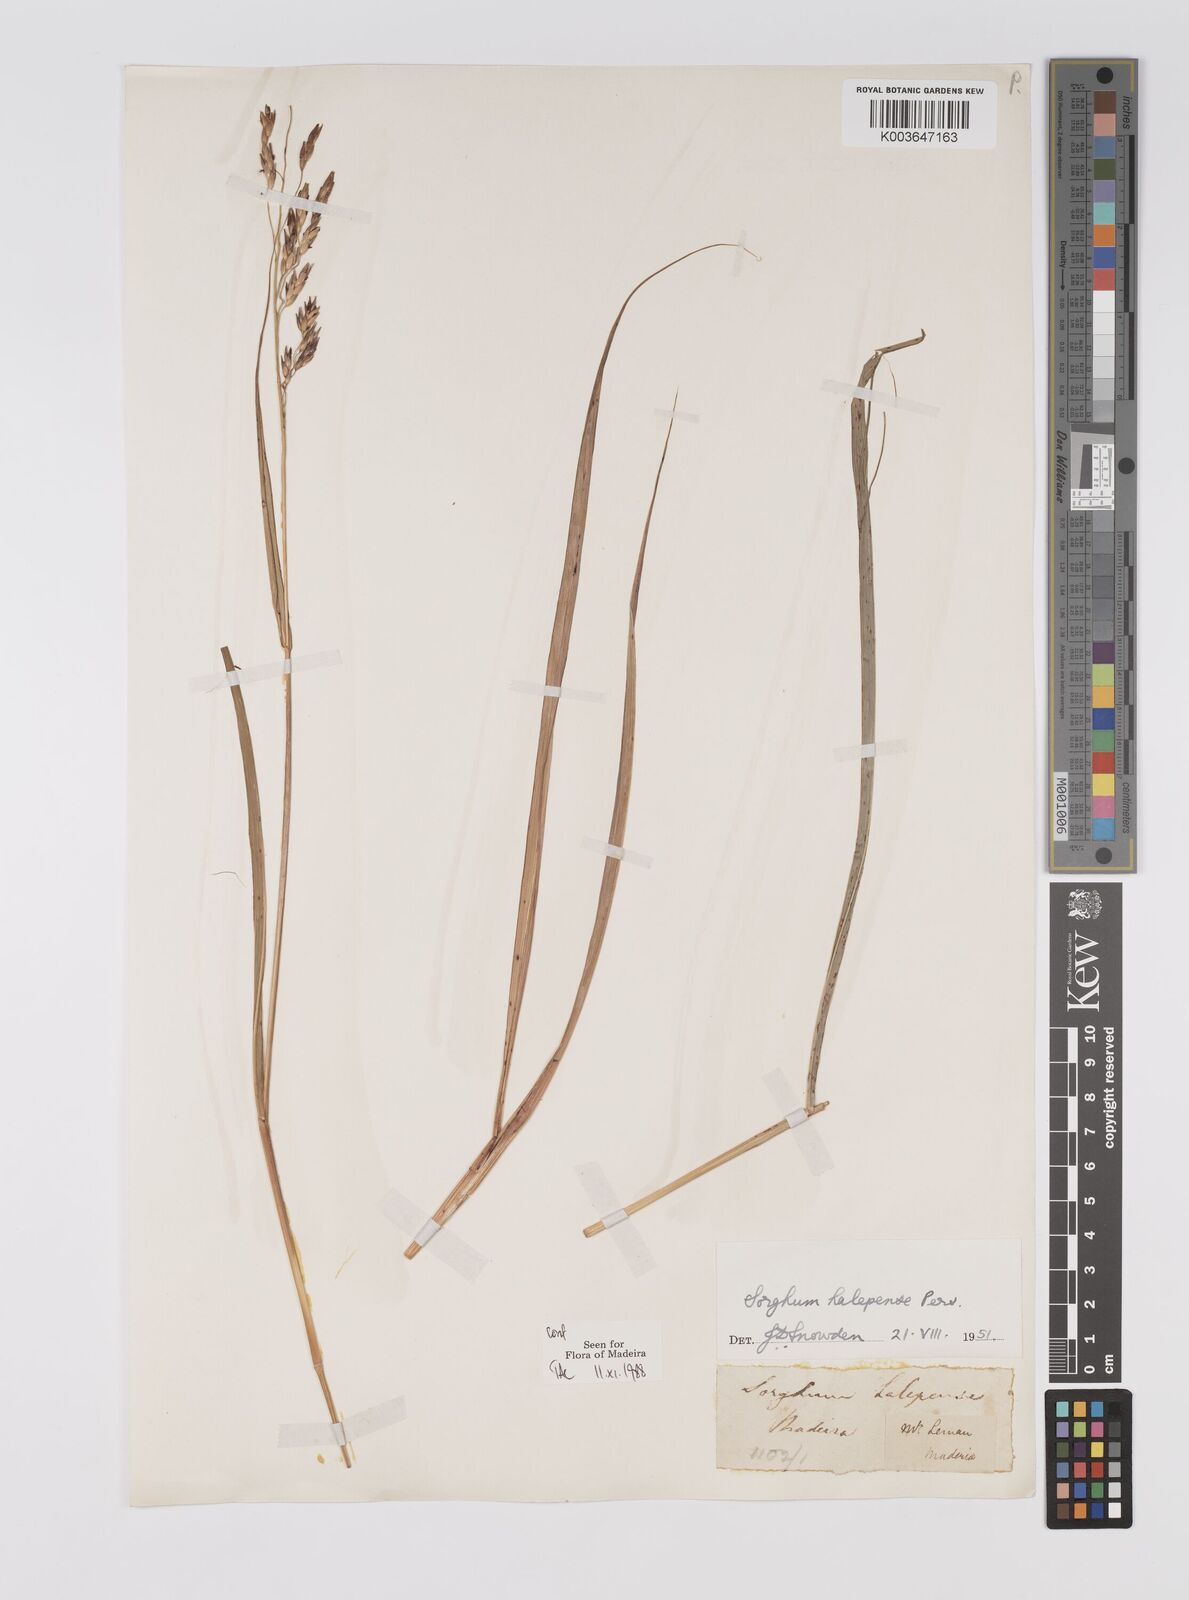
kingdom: Plantae
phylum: Tracheophyta
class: Liliopsida
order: Poales
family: Poaceae
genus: Sorghum
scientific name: Sorghum halepense
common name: Johnson-grass
